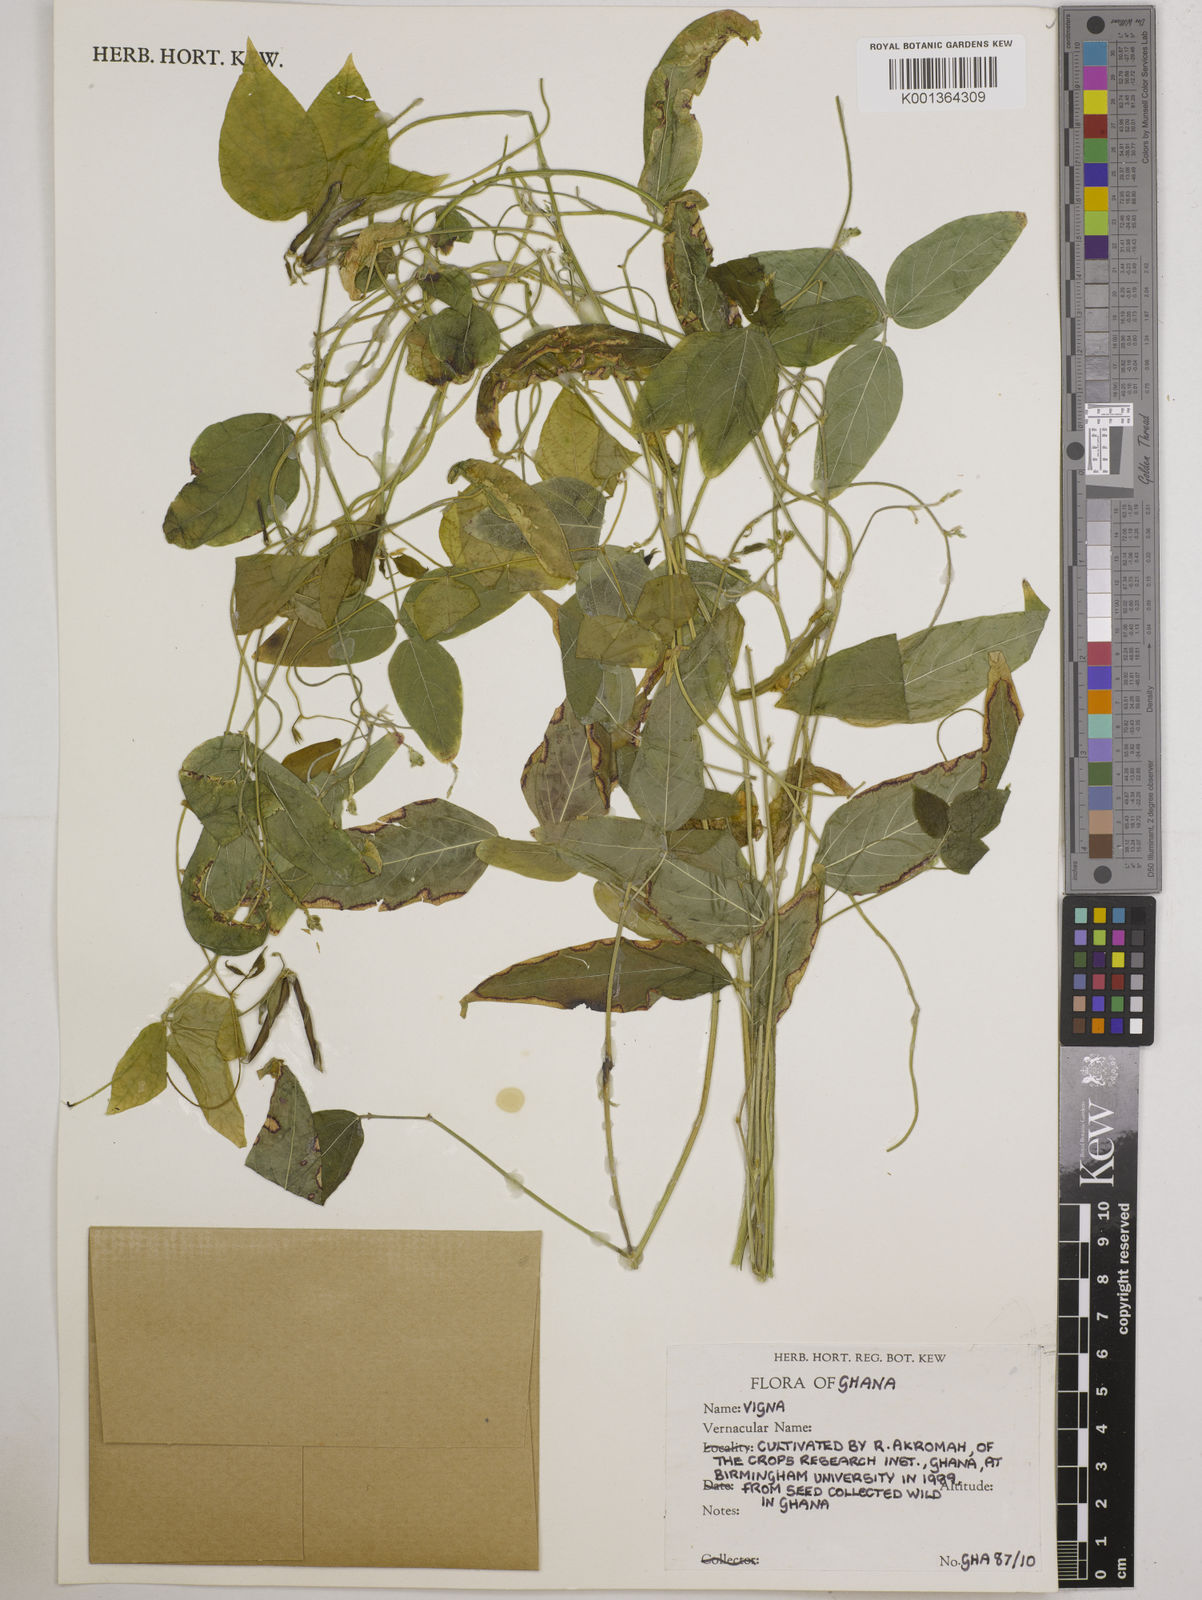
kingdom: Plantae
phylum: Tracheophyta
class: Magnoliopsida
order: Fabales
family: Fabaceae
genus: Vigna
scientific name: Vigna
